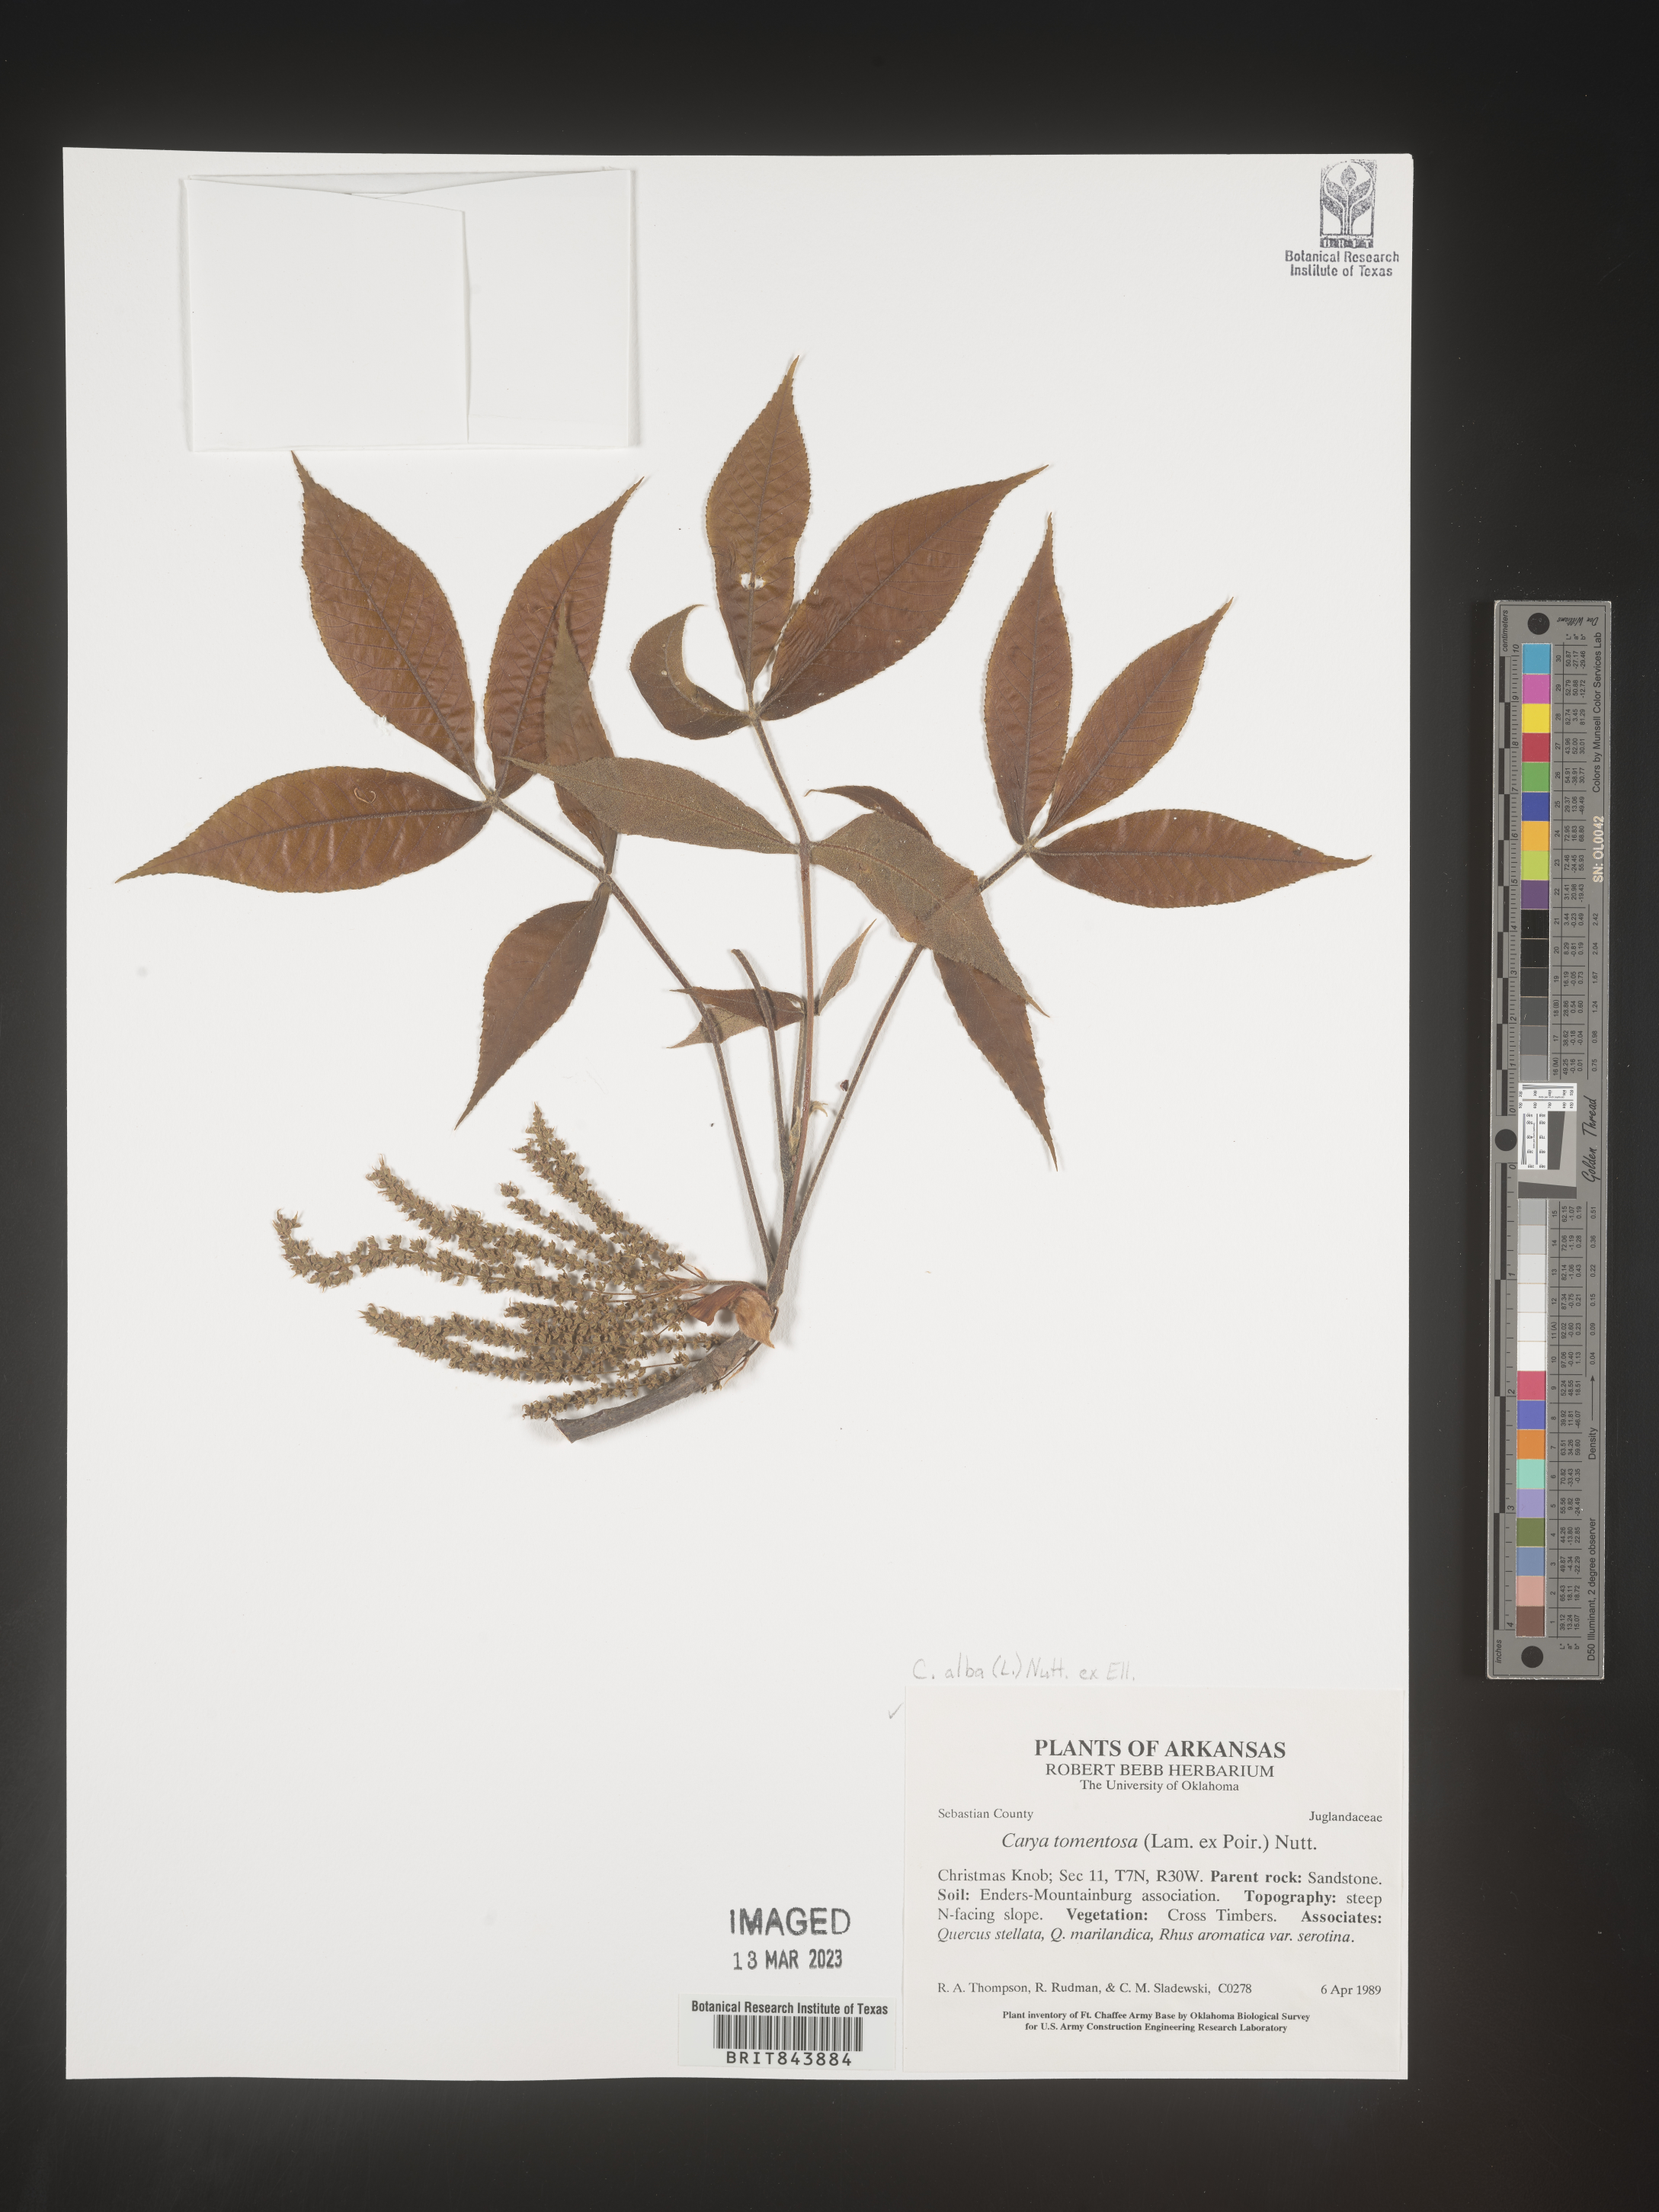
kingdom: Plantae
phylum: Tracheophyta
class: Magnoliopsida
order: Fagales
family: Juglandaceae
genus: Carya
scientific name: Carya alba
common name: Mockernut hickory
